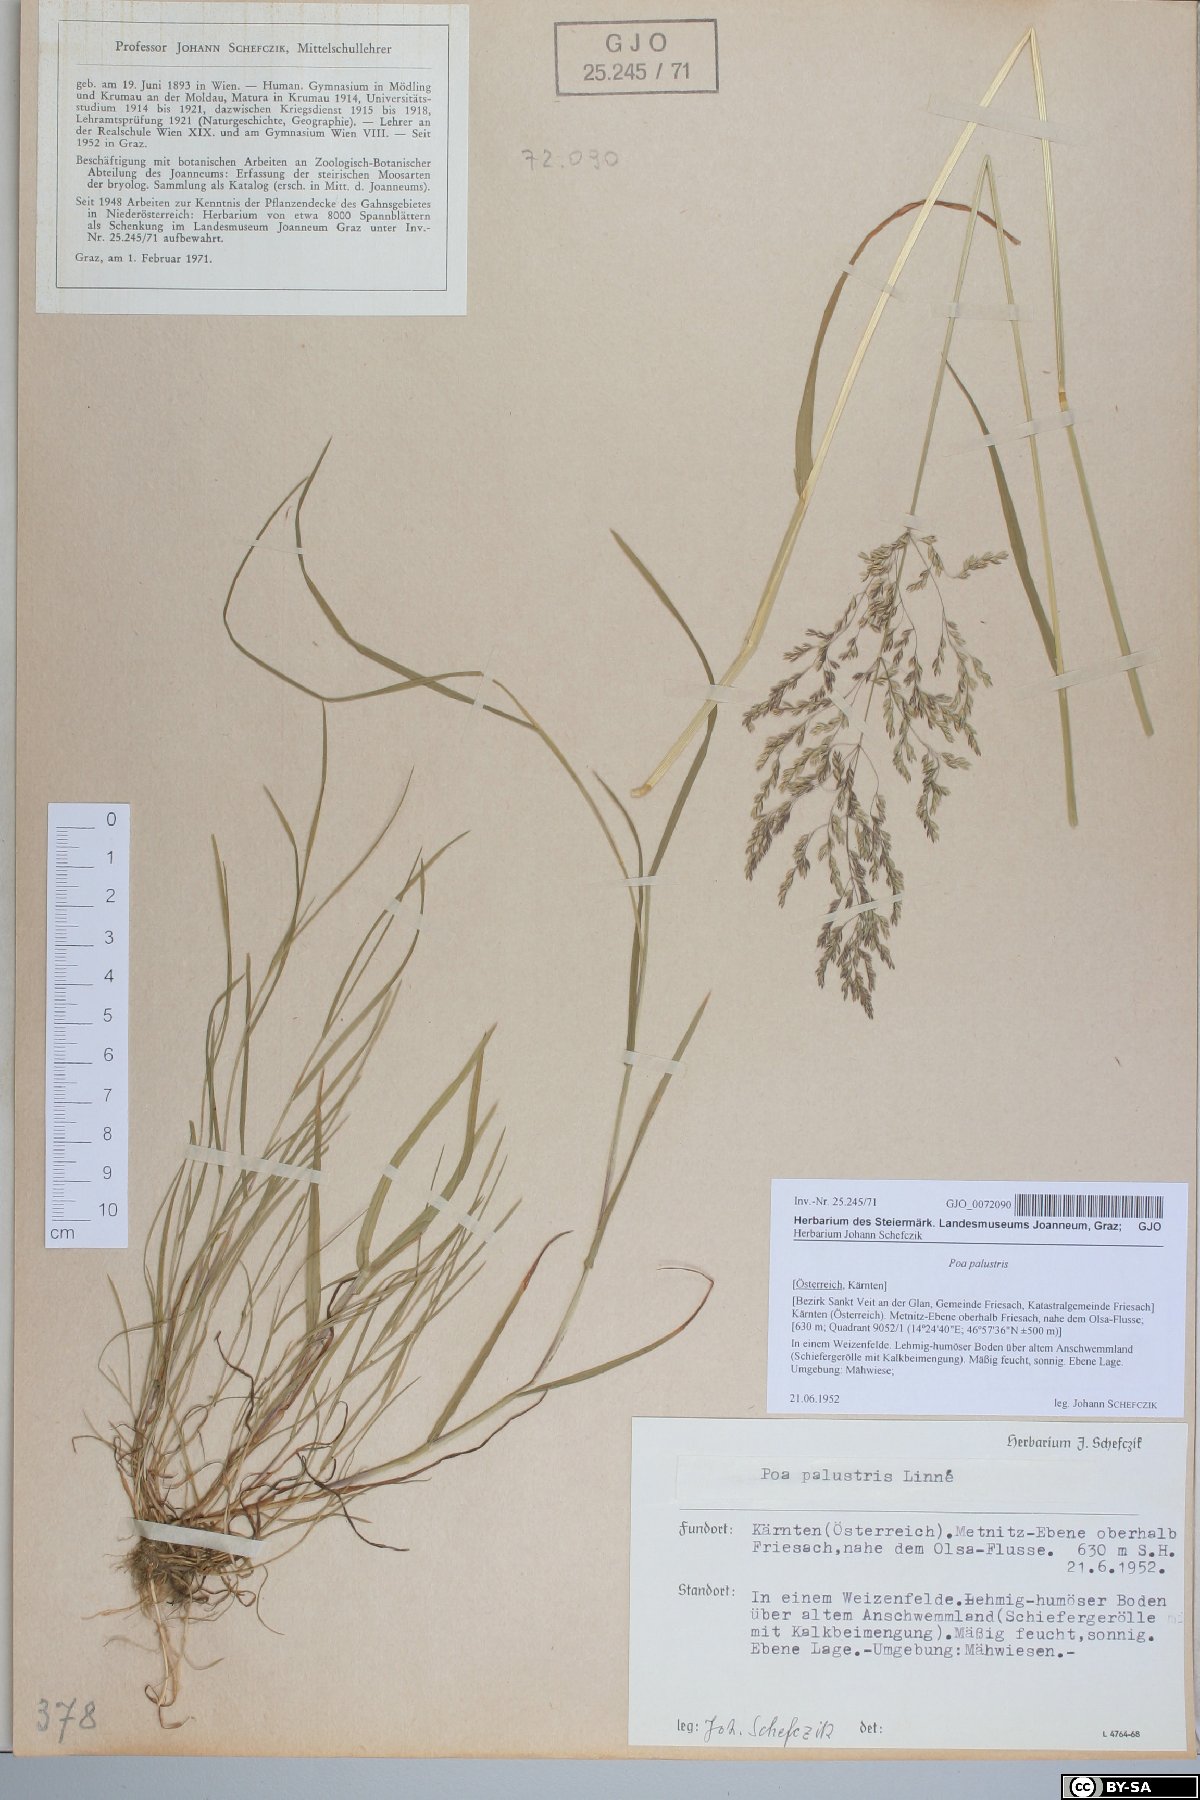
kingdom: Plantae
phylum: Tracheophyta
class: Liliopsida
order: Poales
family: Poaceae
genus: Poa
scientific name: Poa palustris
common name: Swamp meadow-grass
